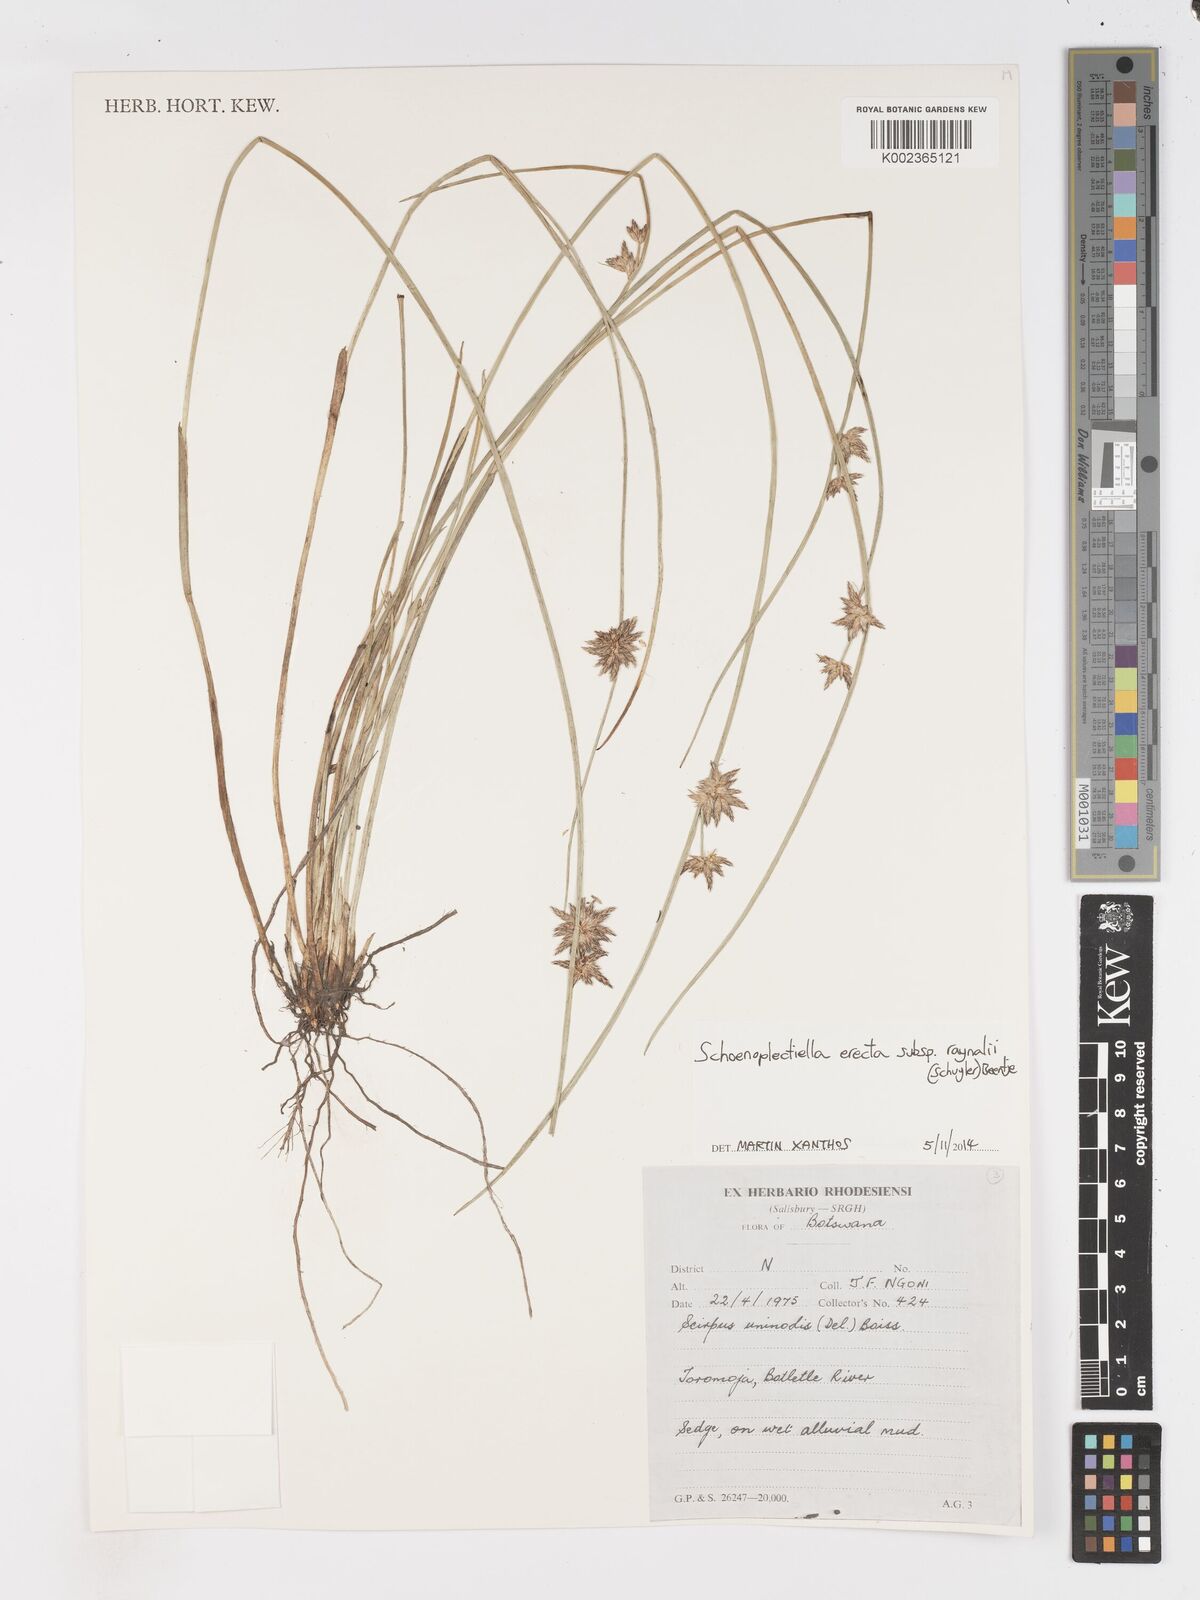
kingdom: Plantae
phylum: Tracheophyta
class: Liliopsida
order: Poales
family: Cyperaceae
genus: Schoenoplectiella
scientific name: Schoenoplectiella erecta
